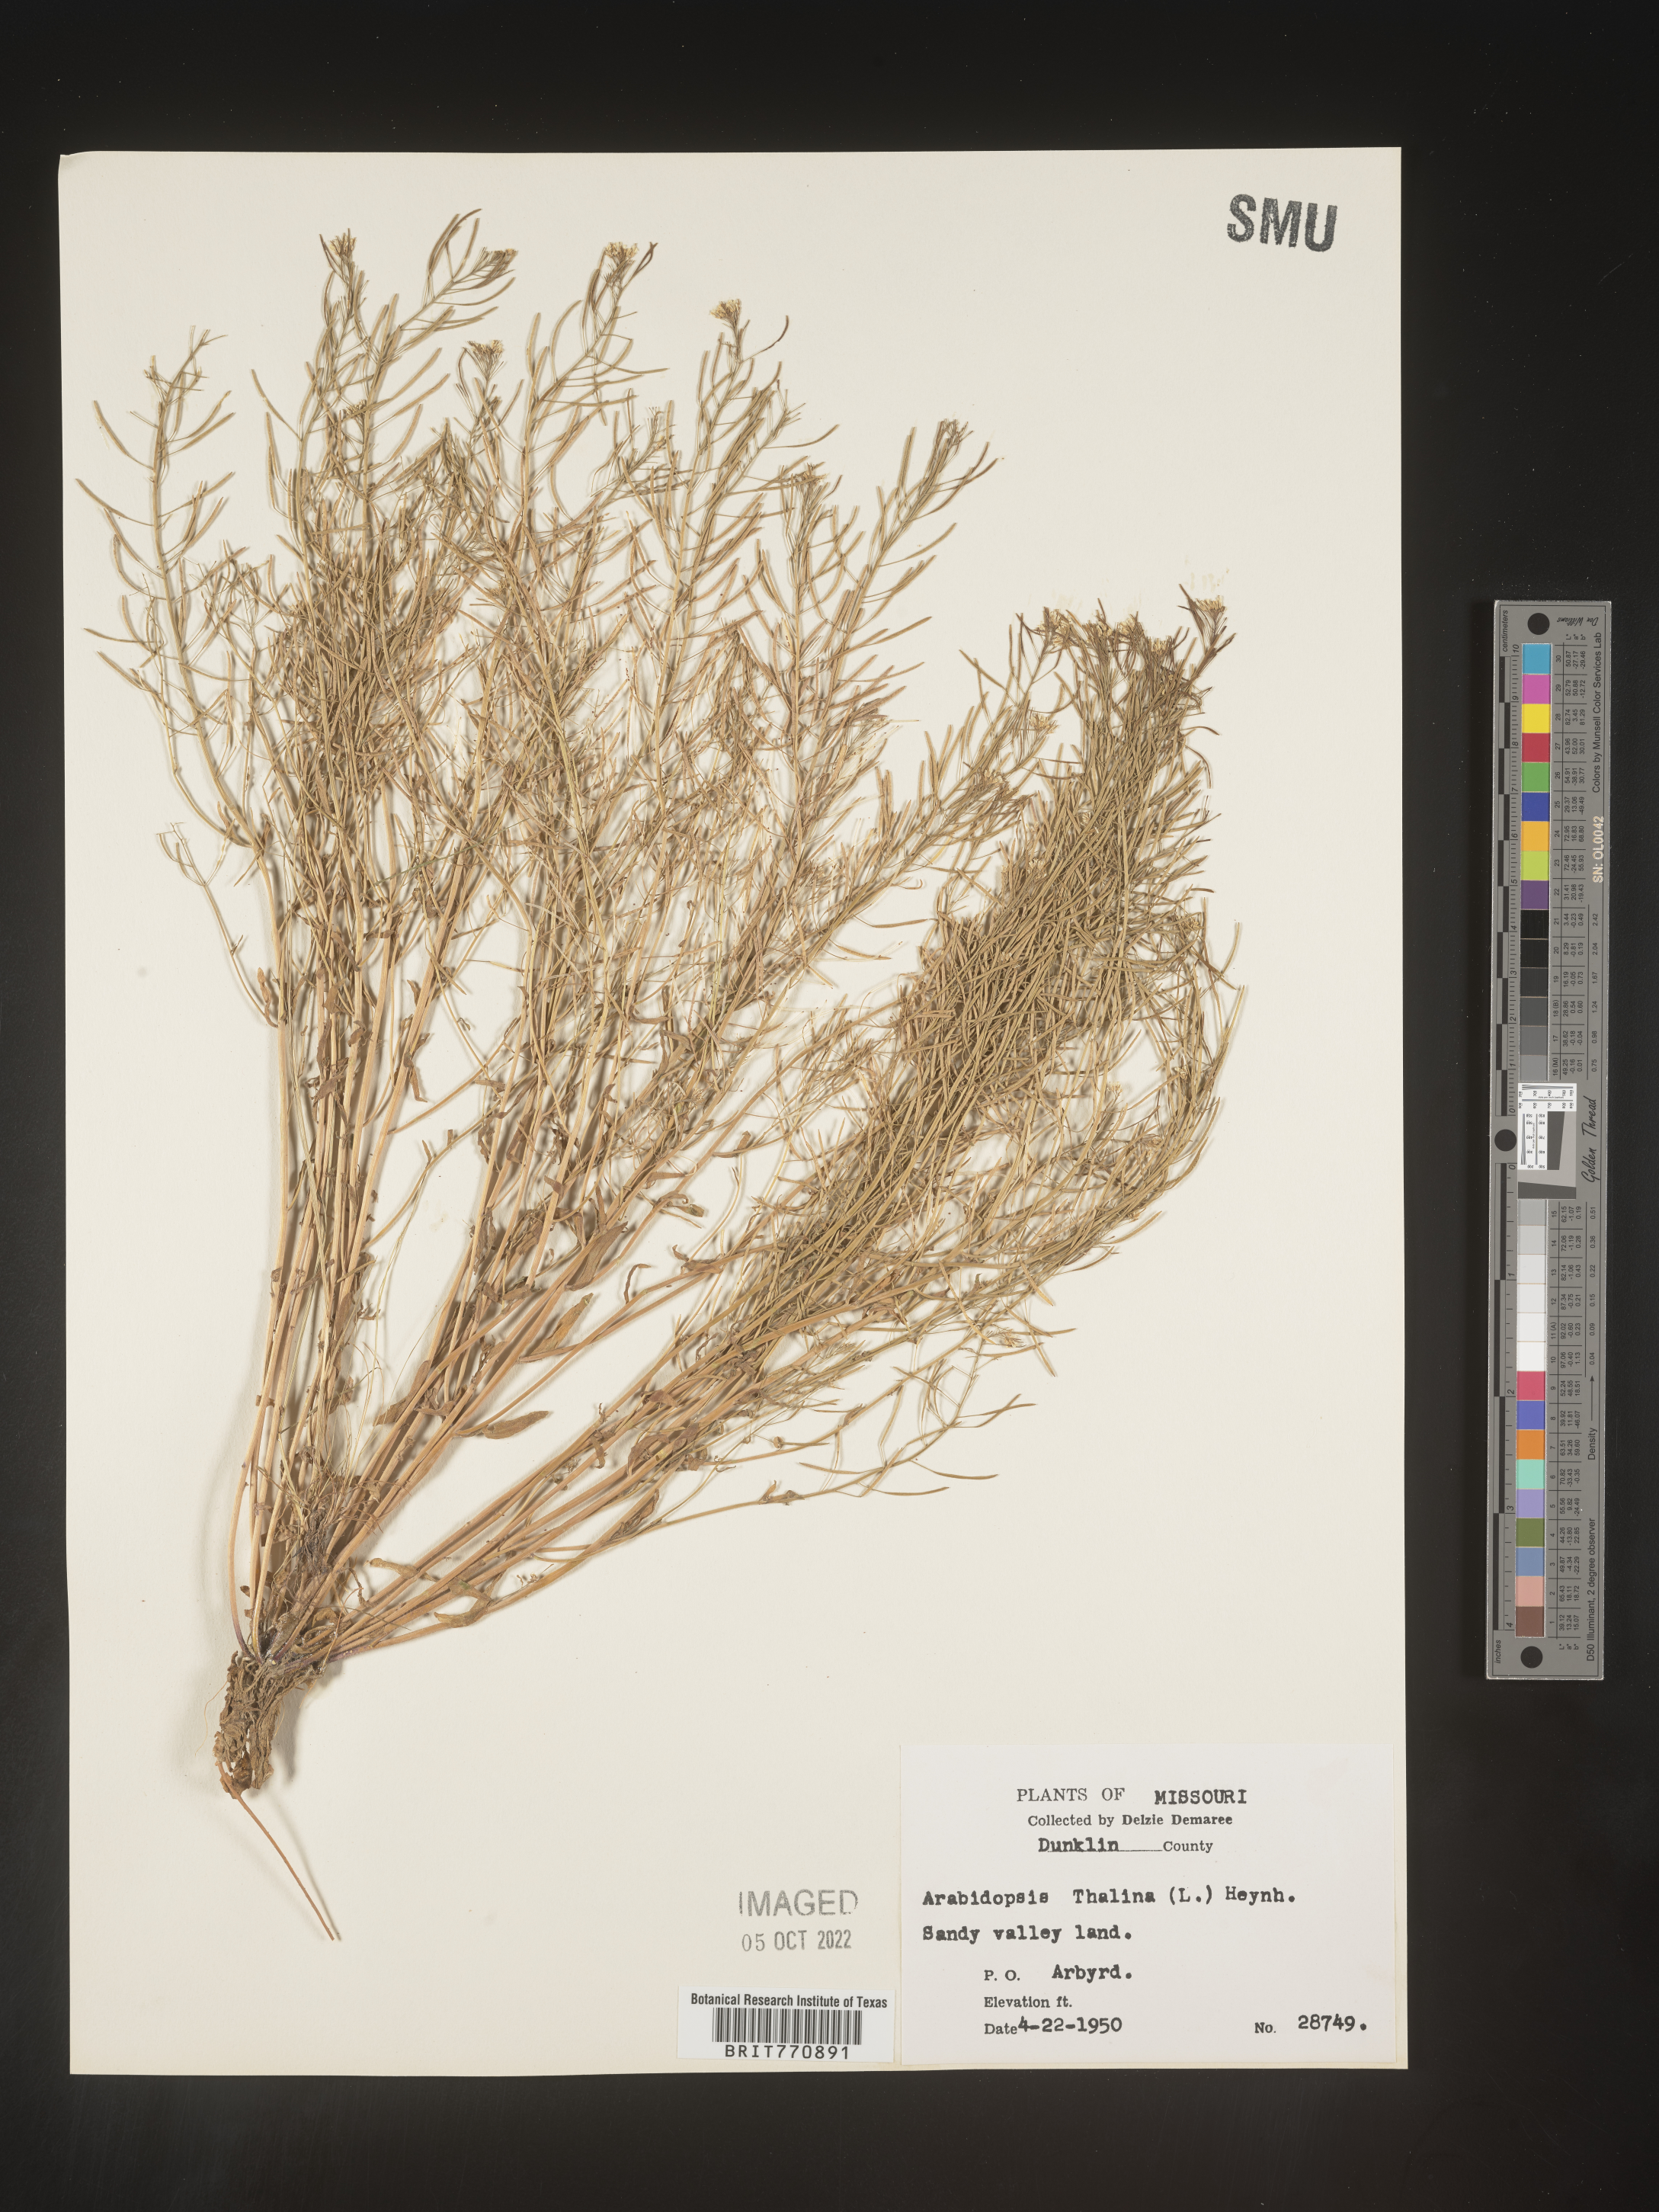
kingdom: Plantae
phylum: Tracheophyta
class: Magnoliopsida
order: Brassicales
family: Brassicaceae
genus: Arabidopsis
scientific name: Arabidopsis thaliana
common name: Thale cress
